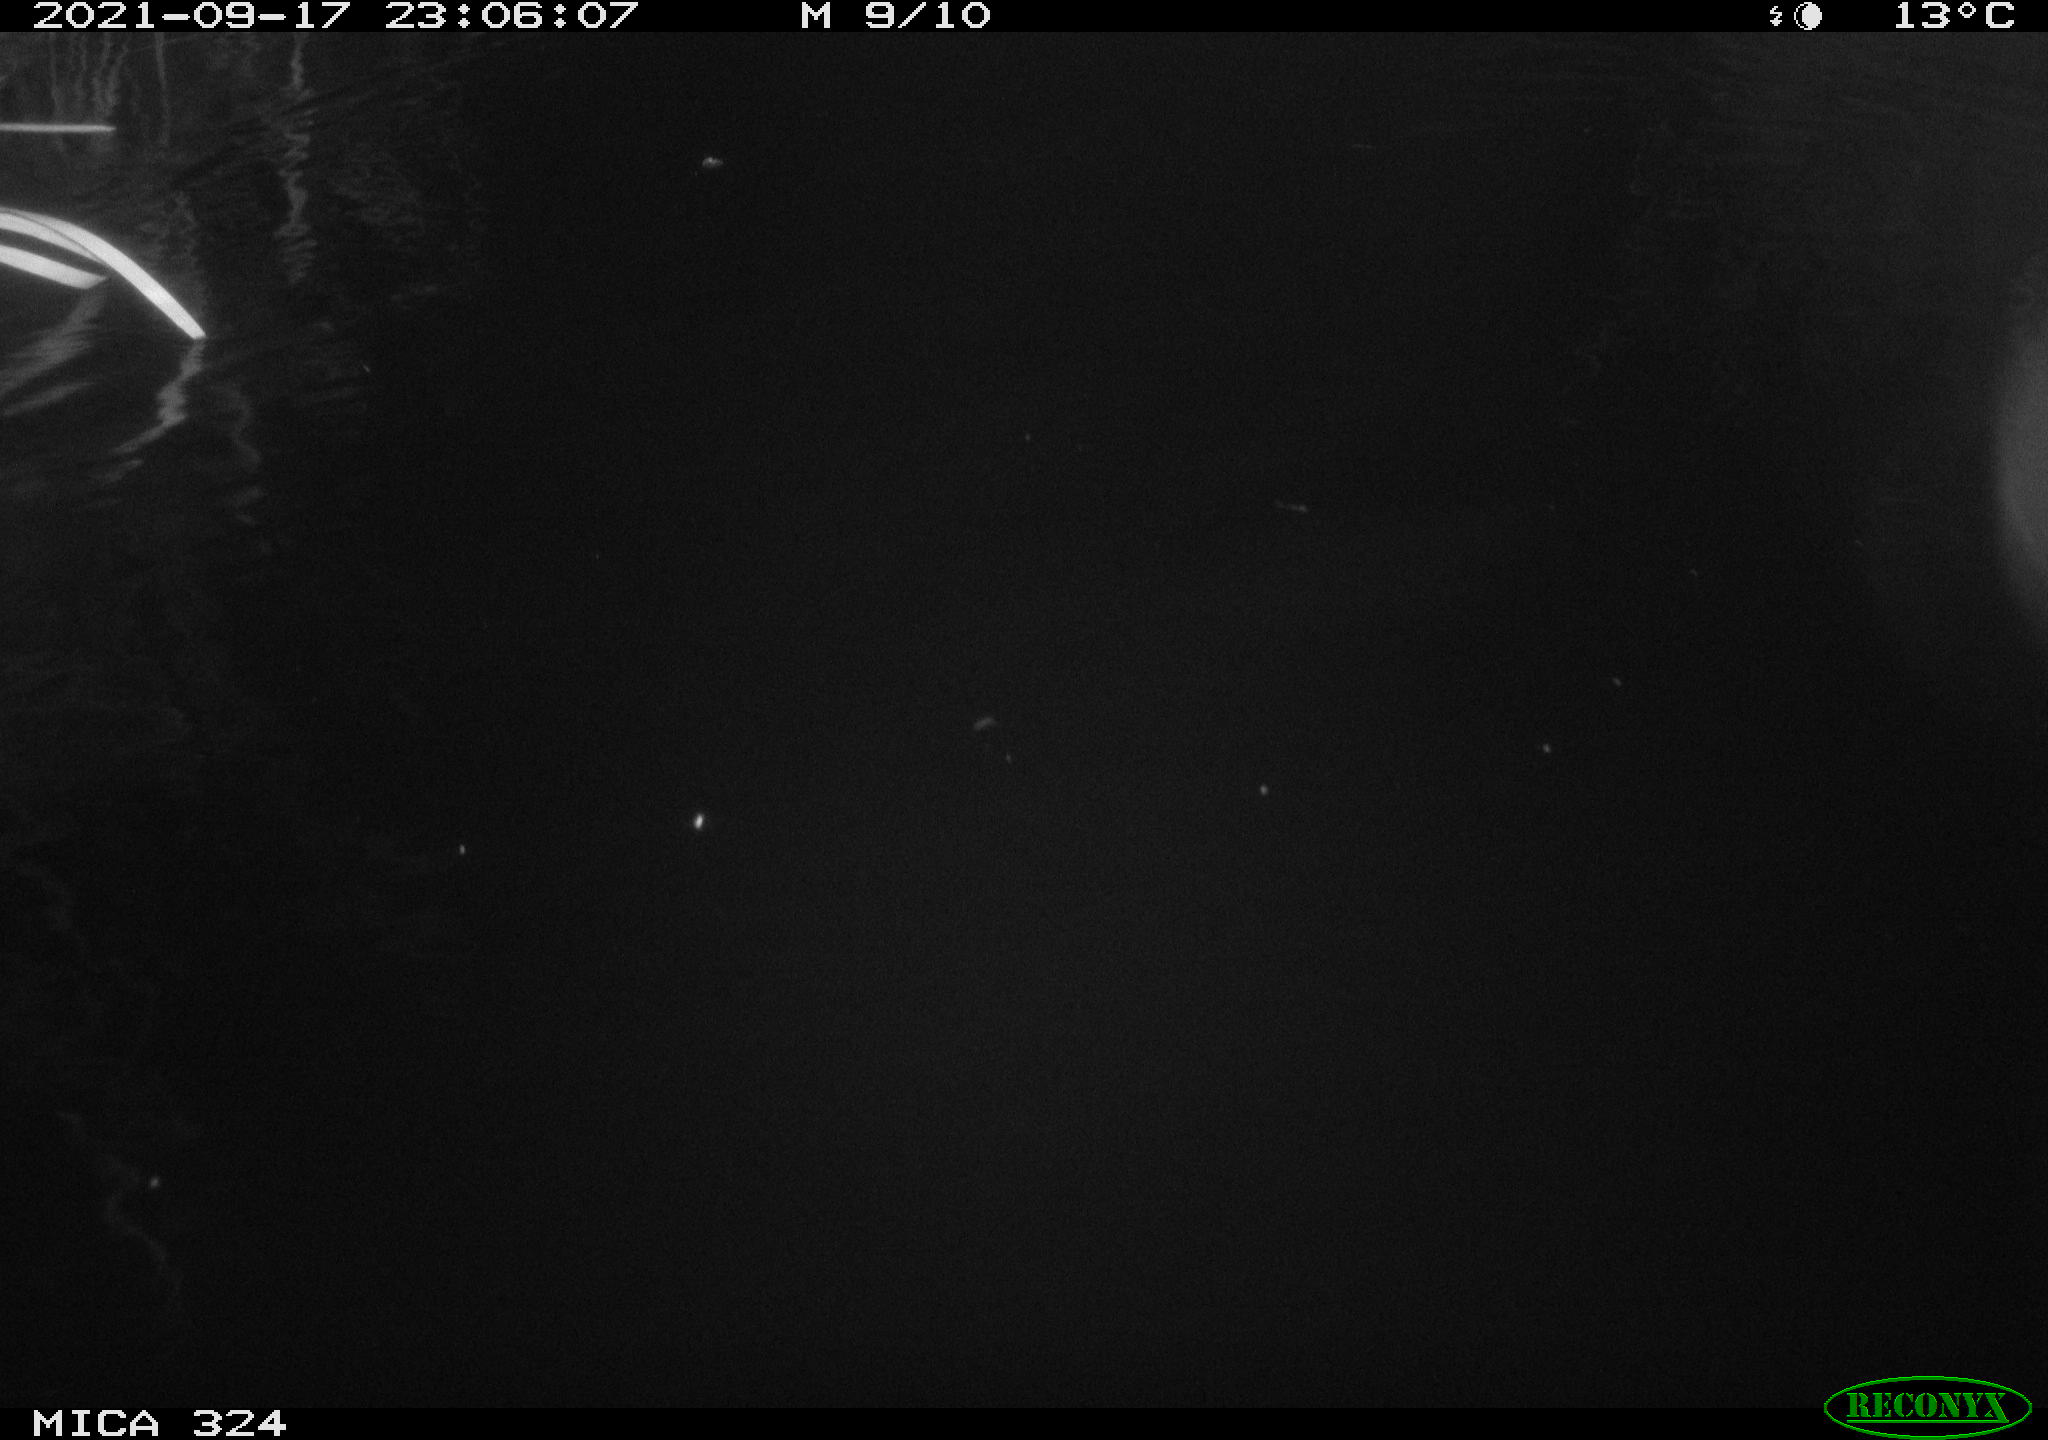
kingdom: Animalia
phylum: Chordata
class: Mammalia
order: Rodentia
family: Cricetidae
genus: Ondatra
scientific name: Ondatra zibethicus
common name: Muskrat
